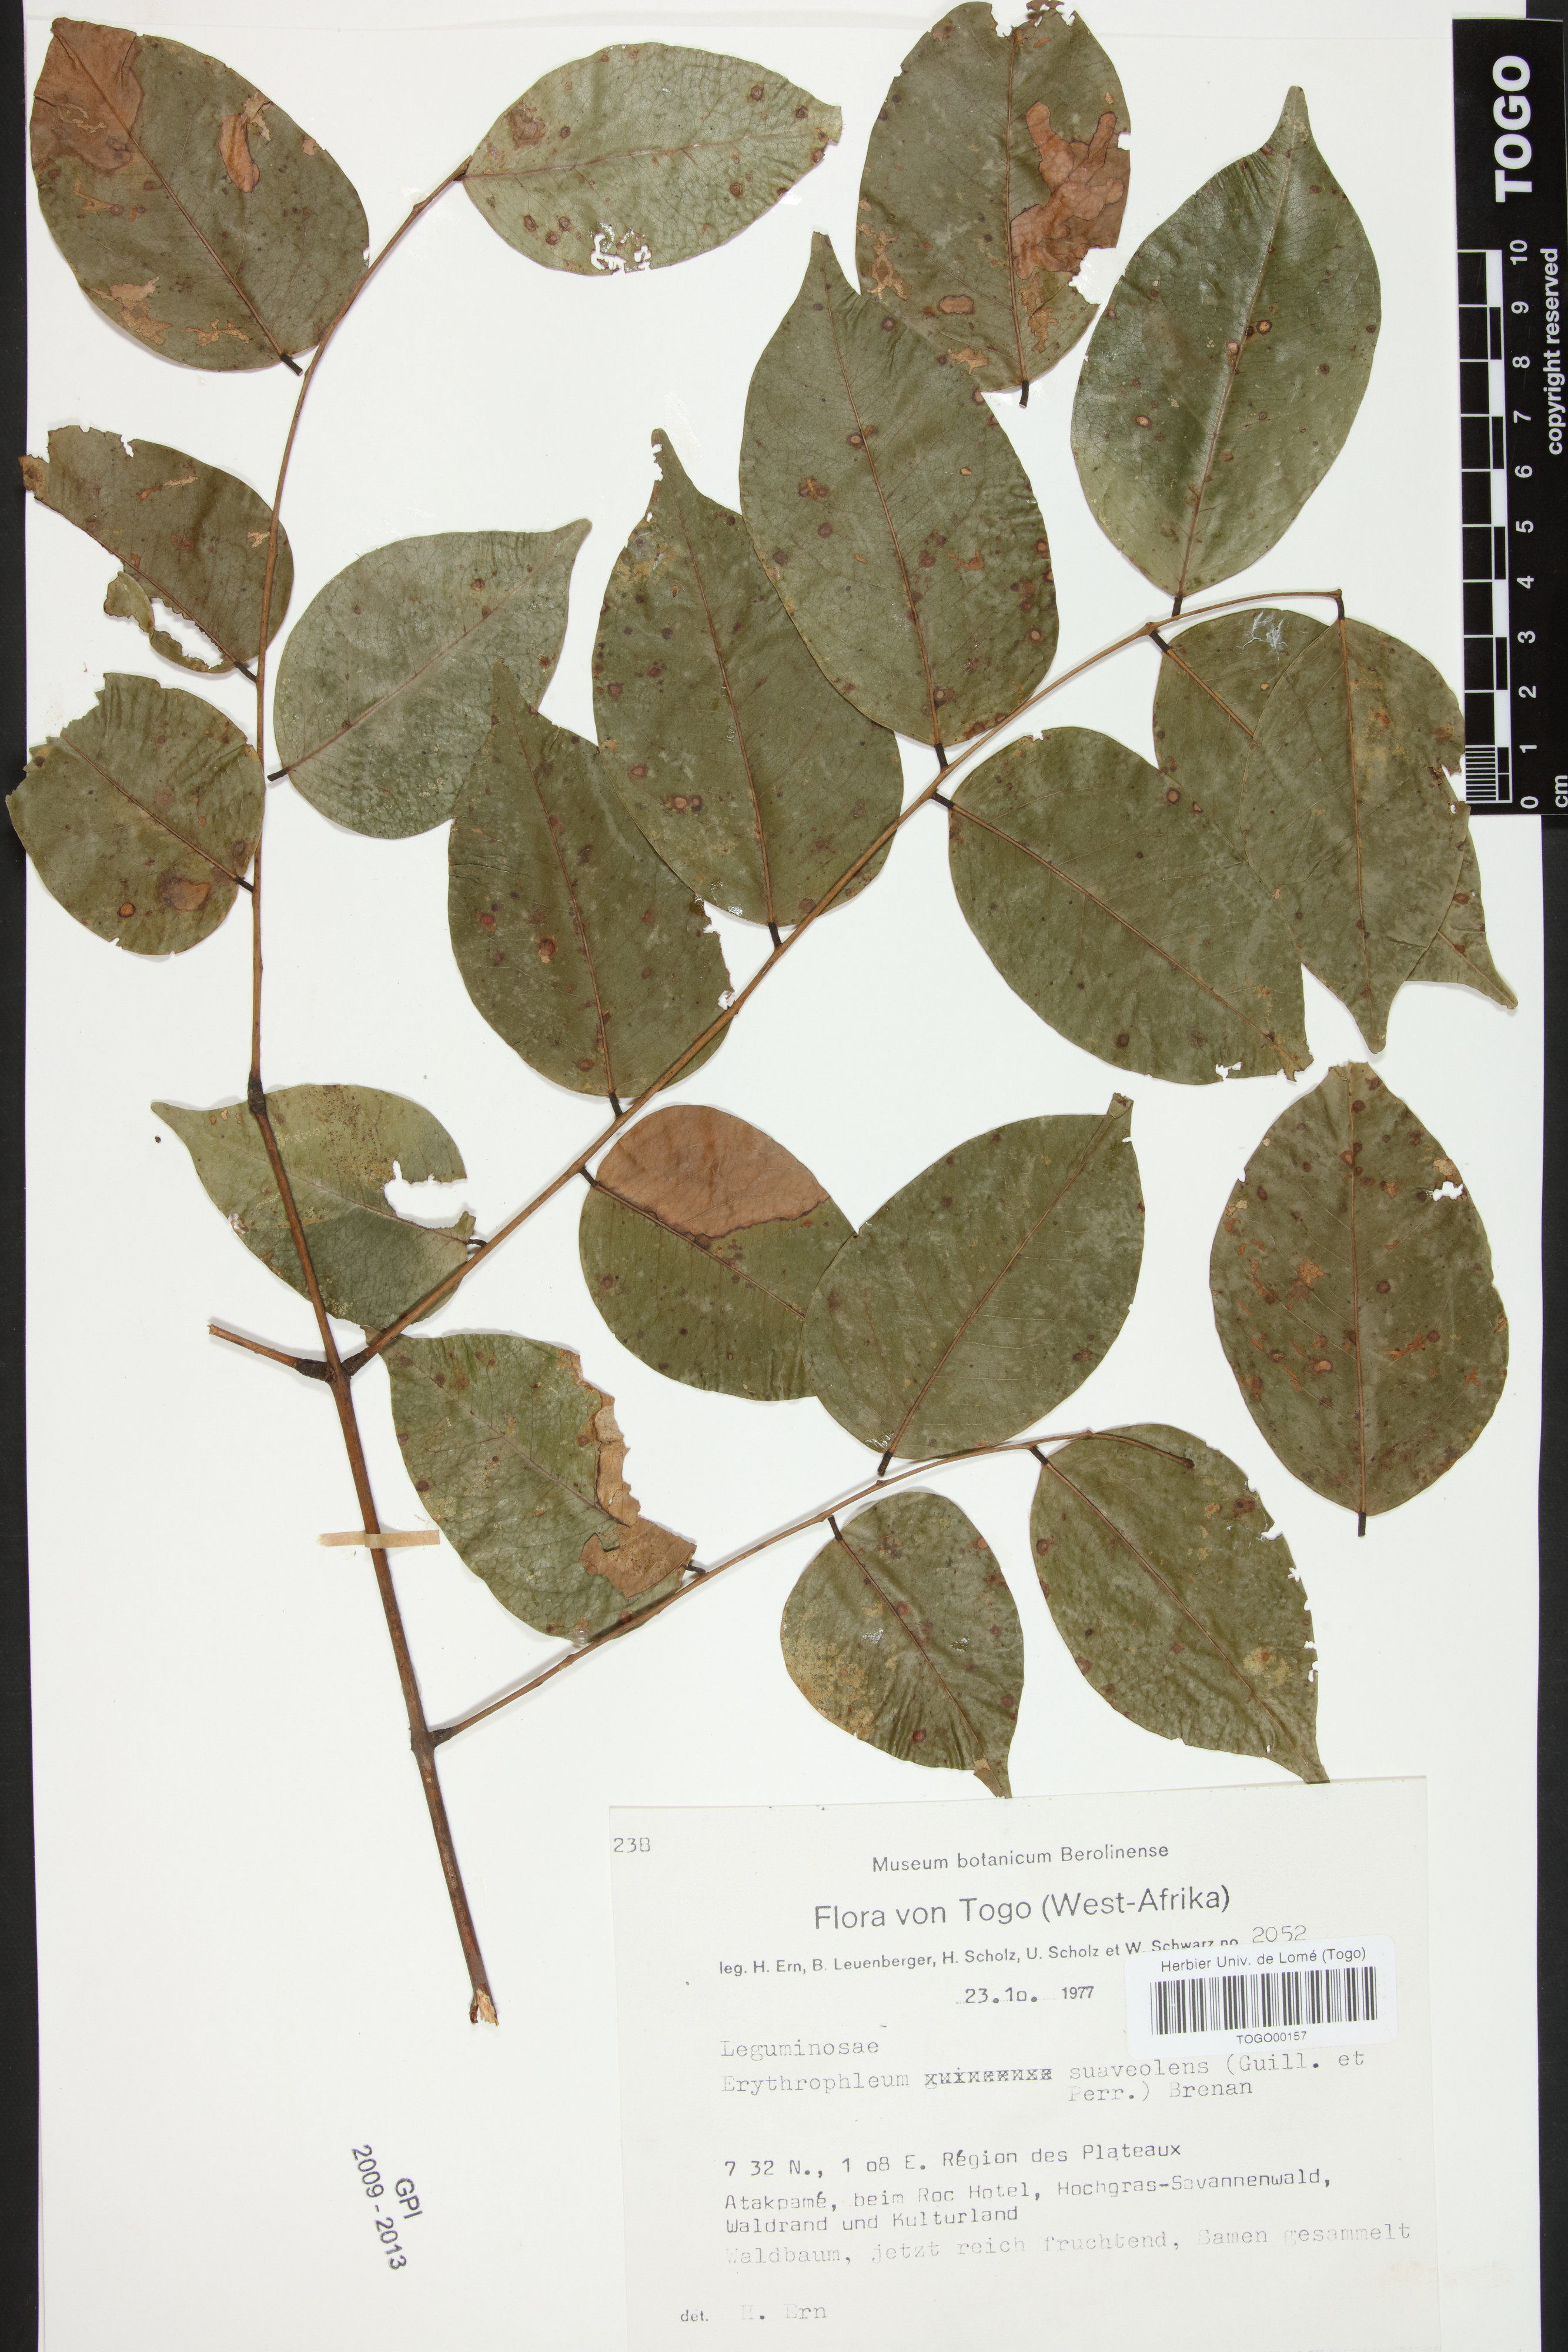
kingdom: Plantae
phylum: Tracheophyta
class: Magnoliopsida
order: Fabales
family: Fabaceae
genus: Erythrophleum
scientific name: Erythrophleum suaveolens
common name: Ordeal tree
